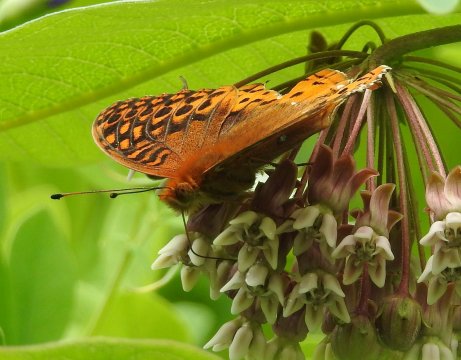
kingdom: Animalia
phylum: Arthropoda
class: Insecta
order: Lepidoptera
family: Nymphalidae
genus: Speyeria
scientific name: Speyeria cybele
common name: Great Spangled Fritillary
